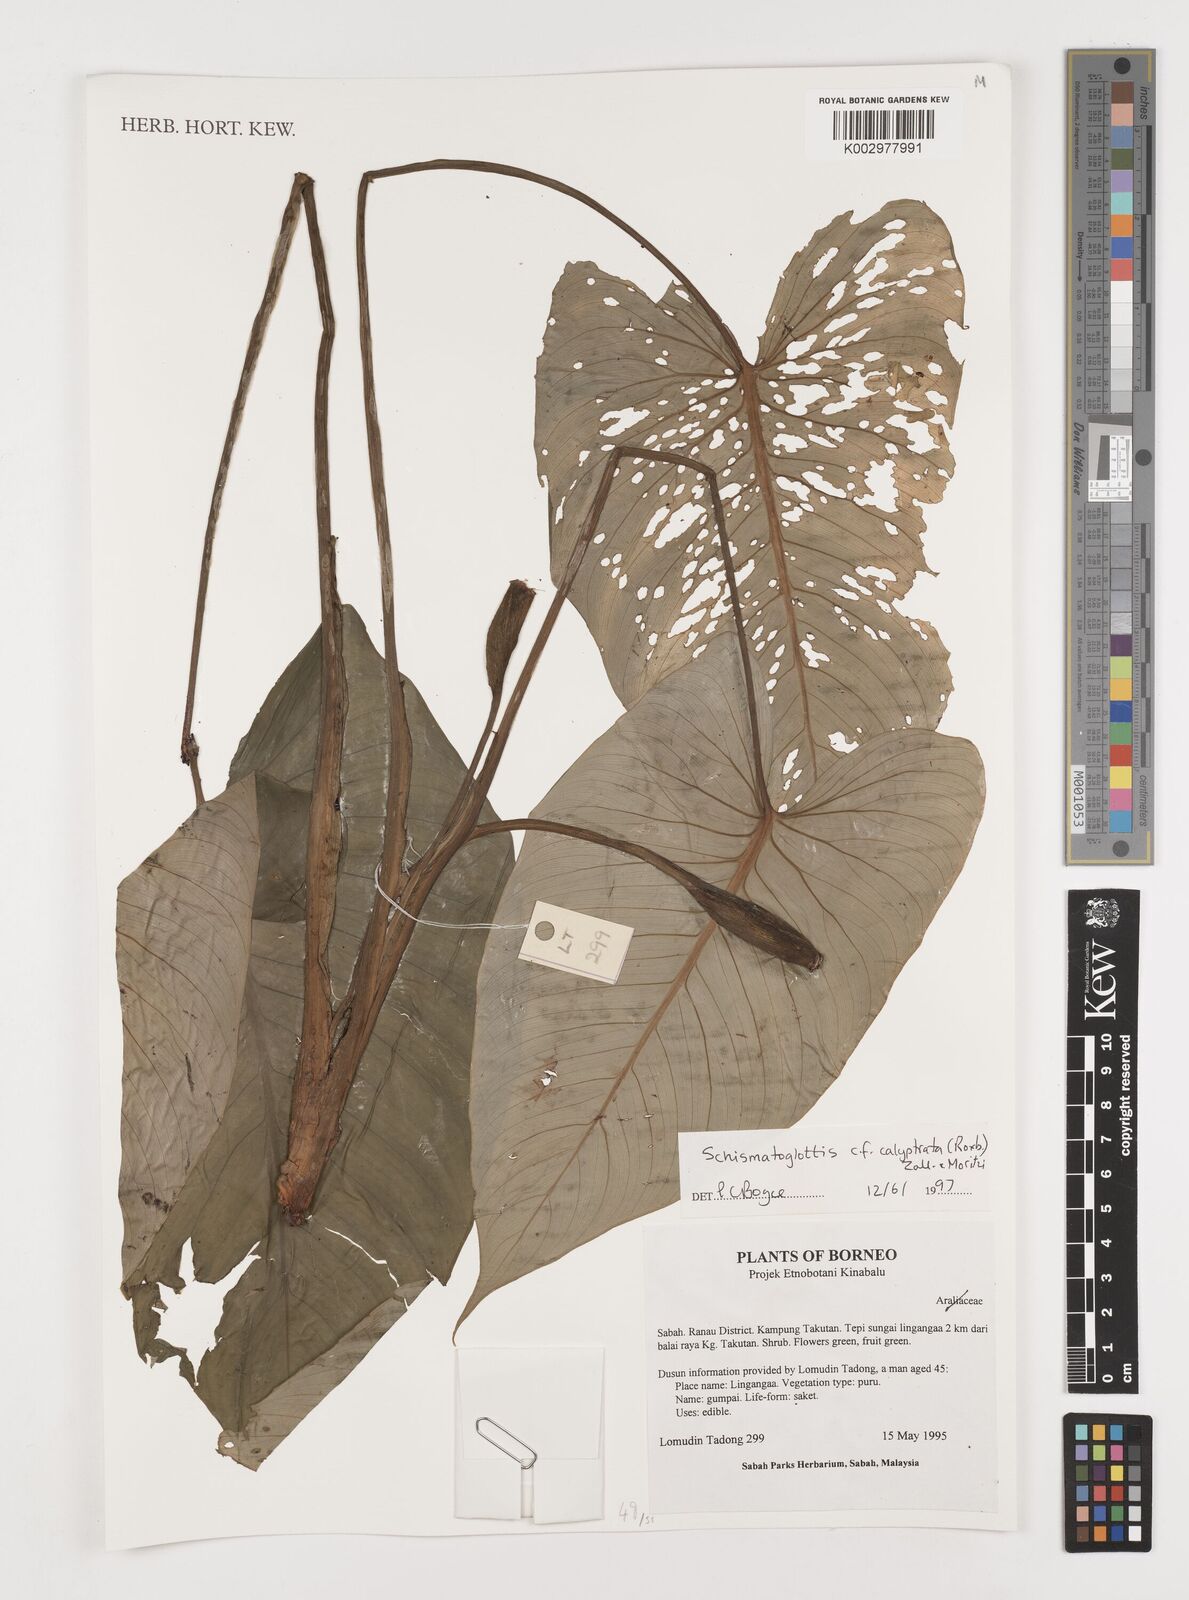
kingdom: Plantae
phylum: Tracheophyta
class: Liliopsida
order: Alismatales
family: Araceae
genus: Schismatoglottis
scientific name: Schismatoglottis calyptrata
